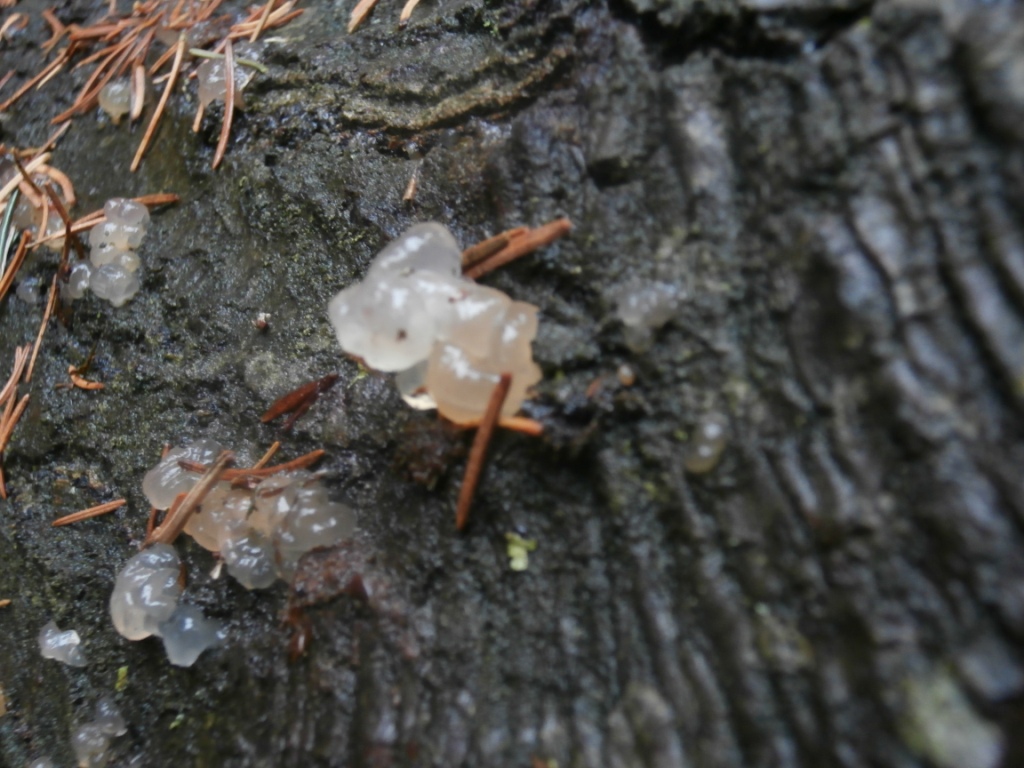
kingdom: Fungi
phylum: Basidiomycota
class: Agaricomycetes
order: Auriculariales
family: Hyaloriaceae
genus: Myxarium
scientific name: Myxarium nucleatum
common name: klar bævretop
